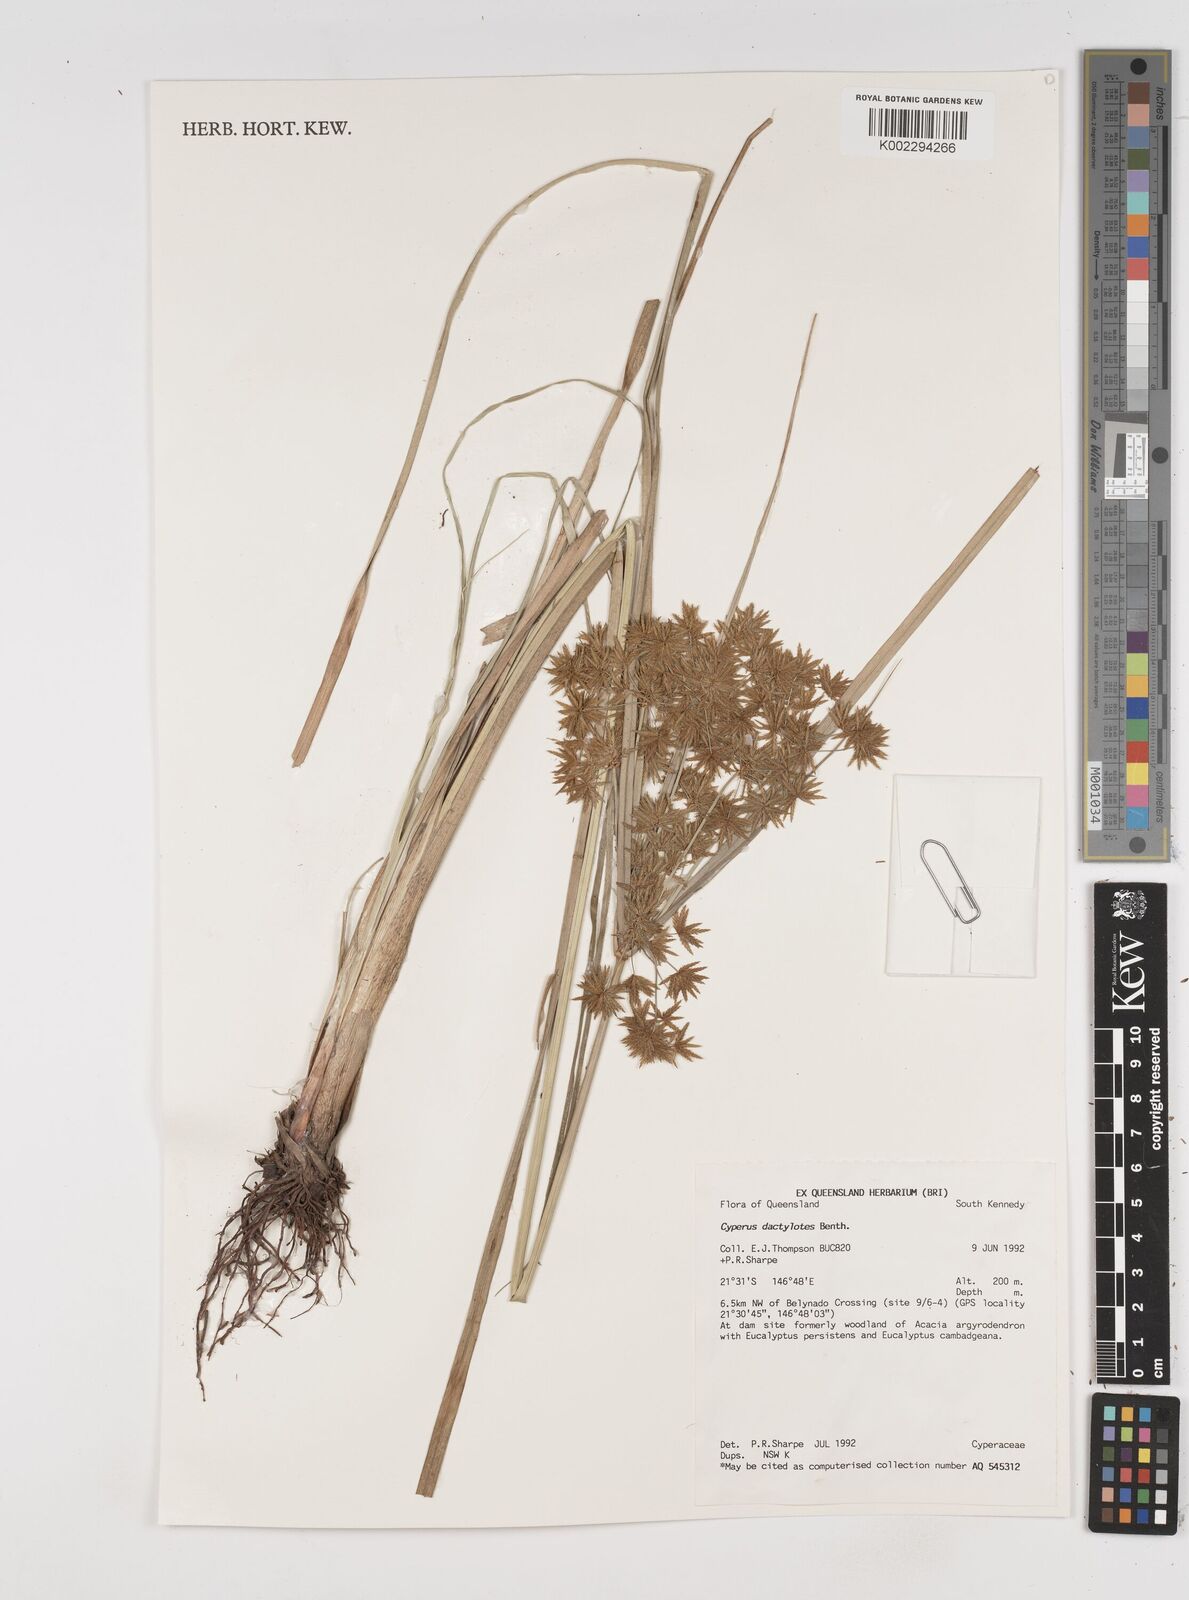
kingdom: Plantae
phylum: Tracheophyta
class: Liliopsida
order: Poales
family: Cyperaceae
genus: Cyperus
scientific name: Cyperus dactylotes
